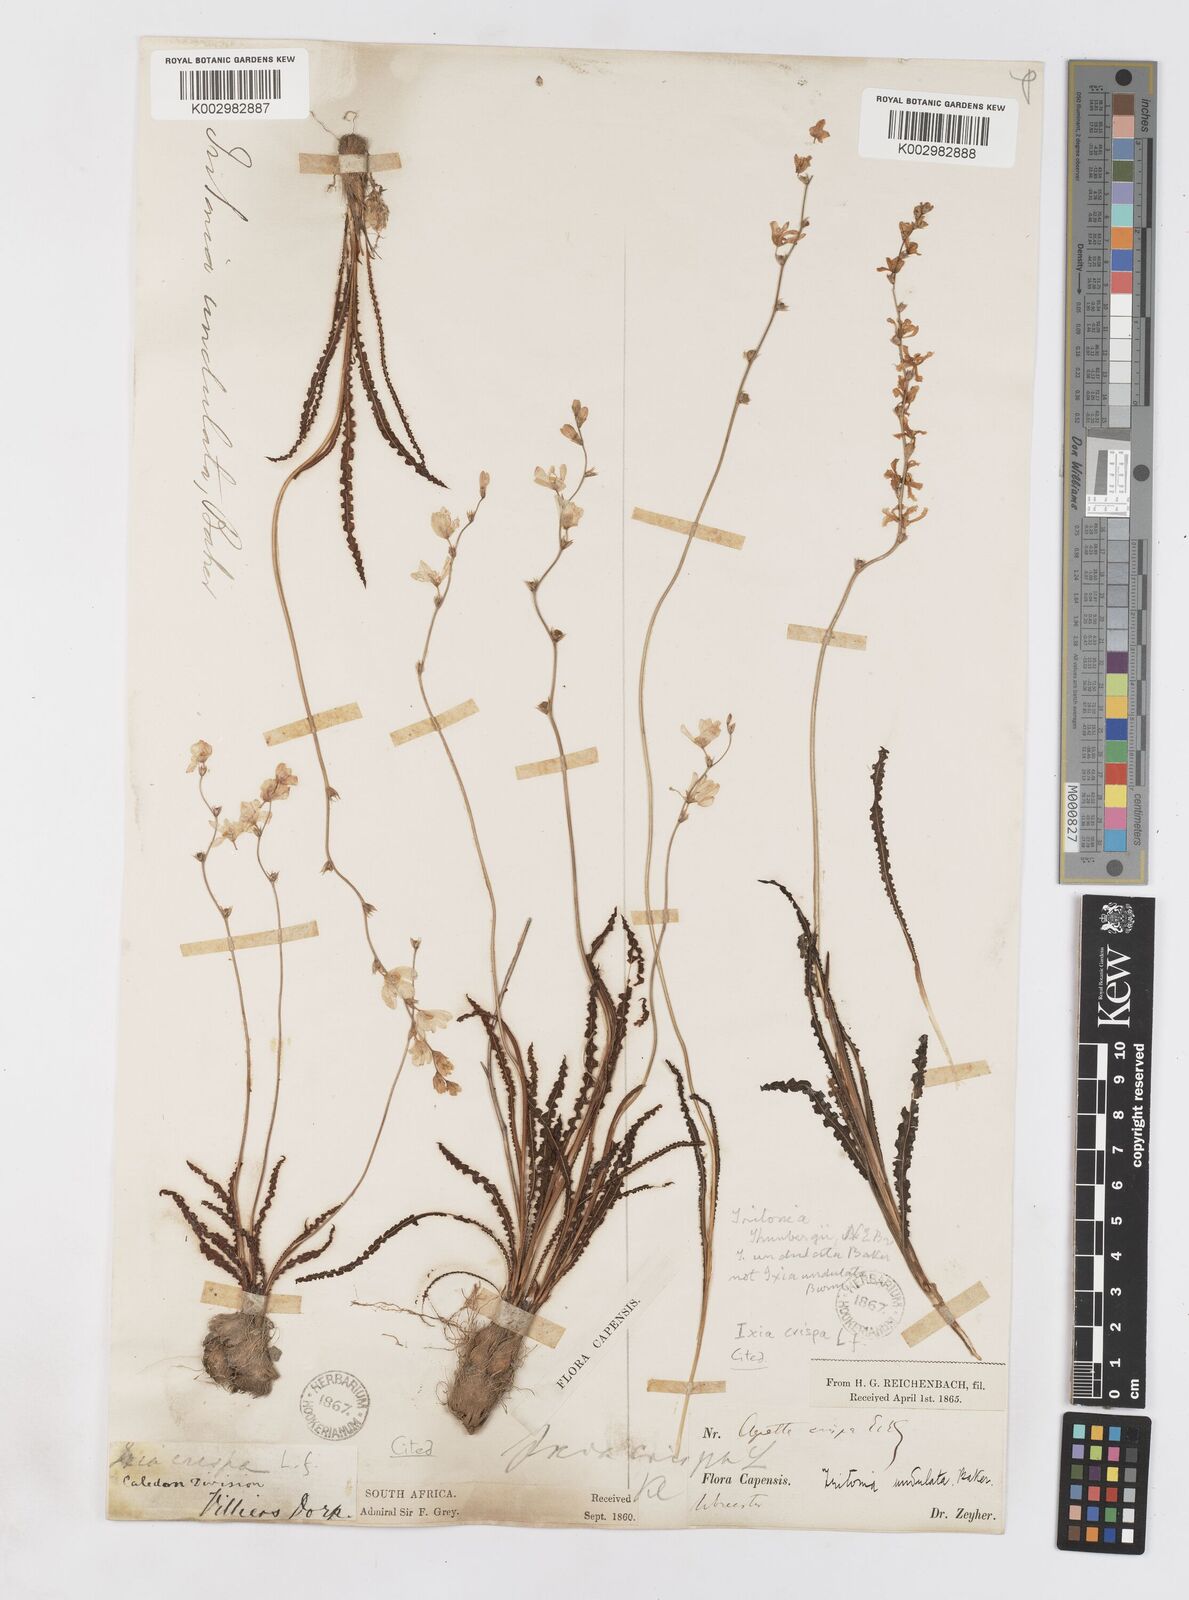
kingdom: Plantae
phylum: Tracheophyta
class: Liliopsida
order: Asparagales
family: Iridaceae
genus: Ixia
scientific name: Ixia erubescens
